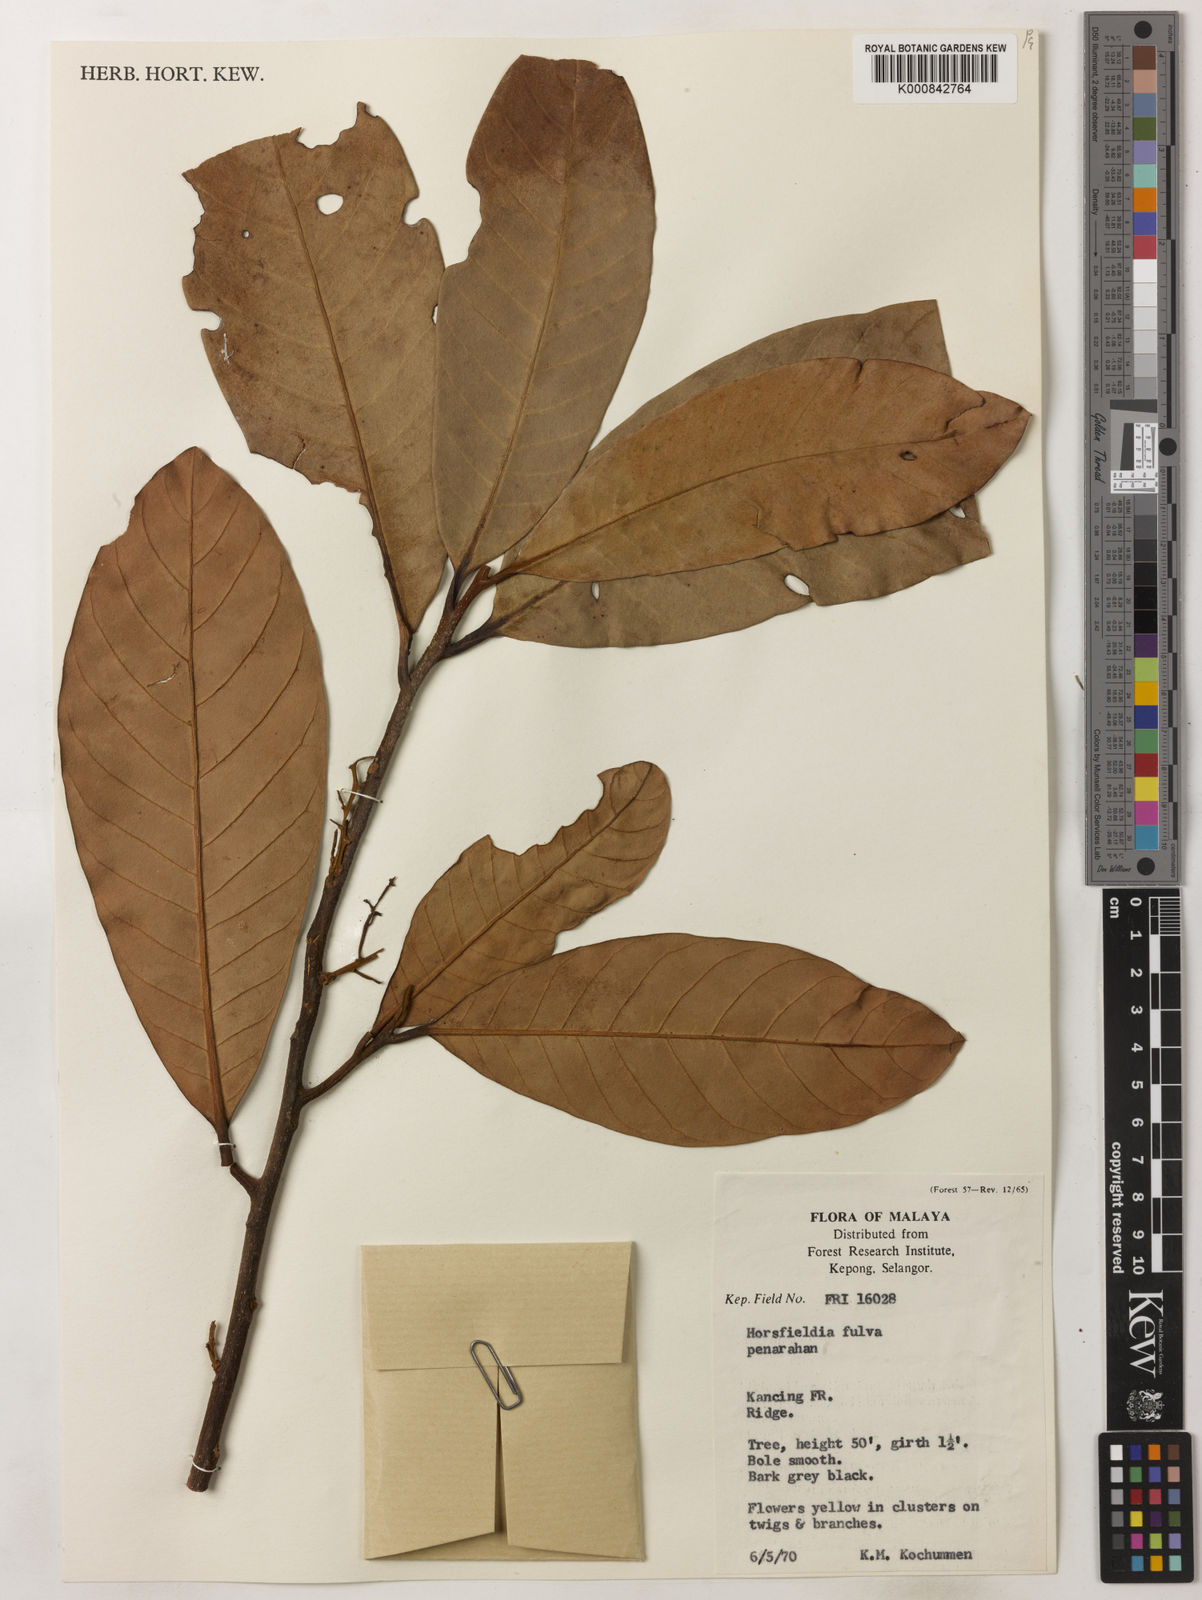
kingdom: Plantae
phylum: Tracheophyta
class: Magnoliopsida
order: Magnoliales
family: Myristicaceae
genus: Horsfieldia
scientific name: Horsfieldia fulva
